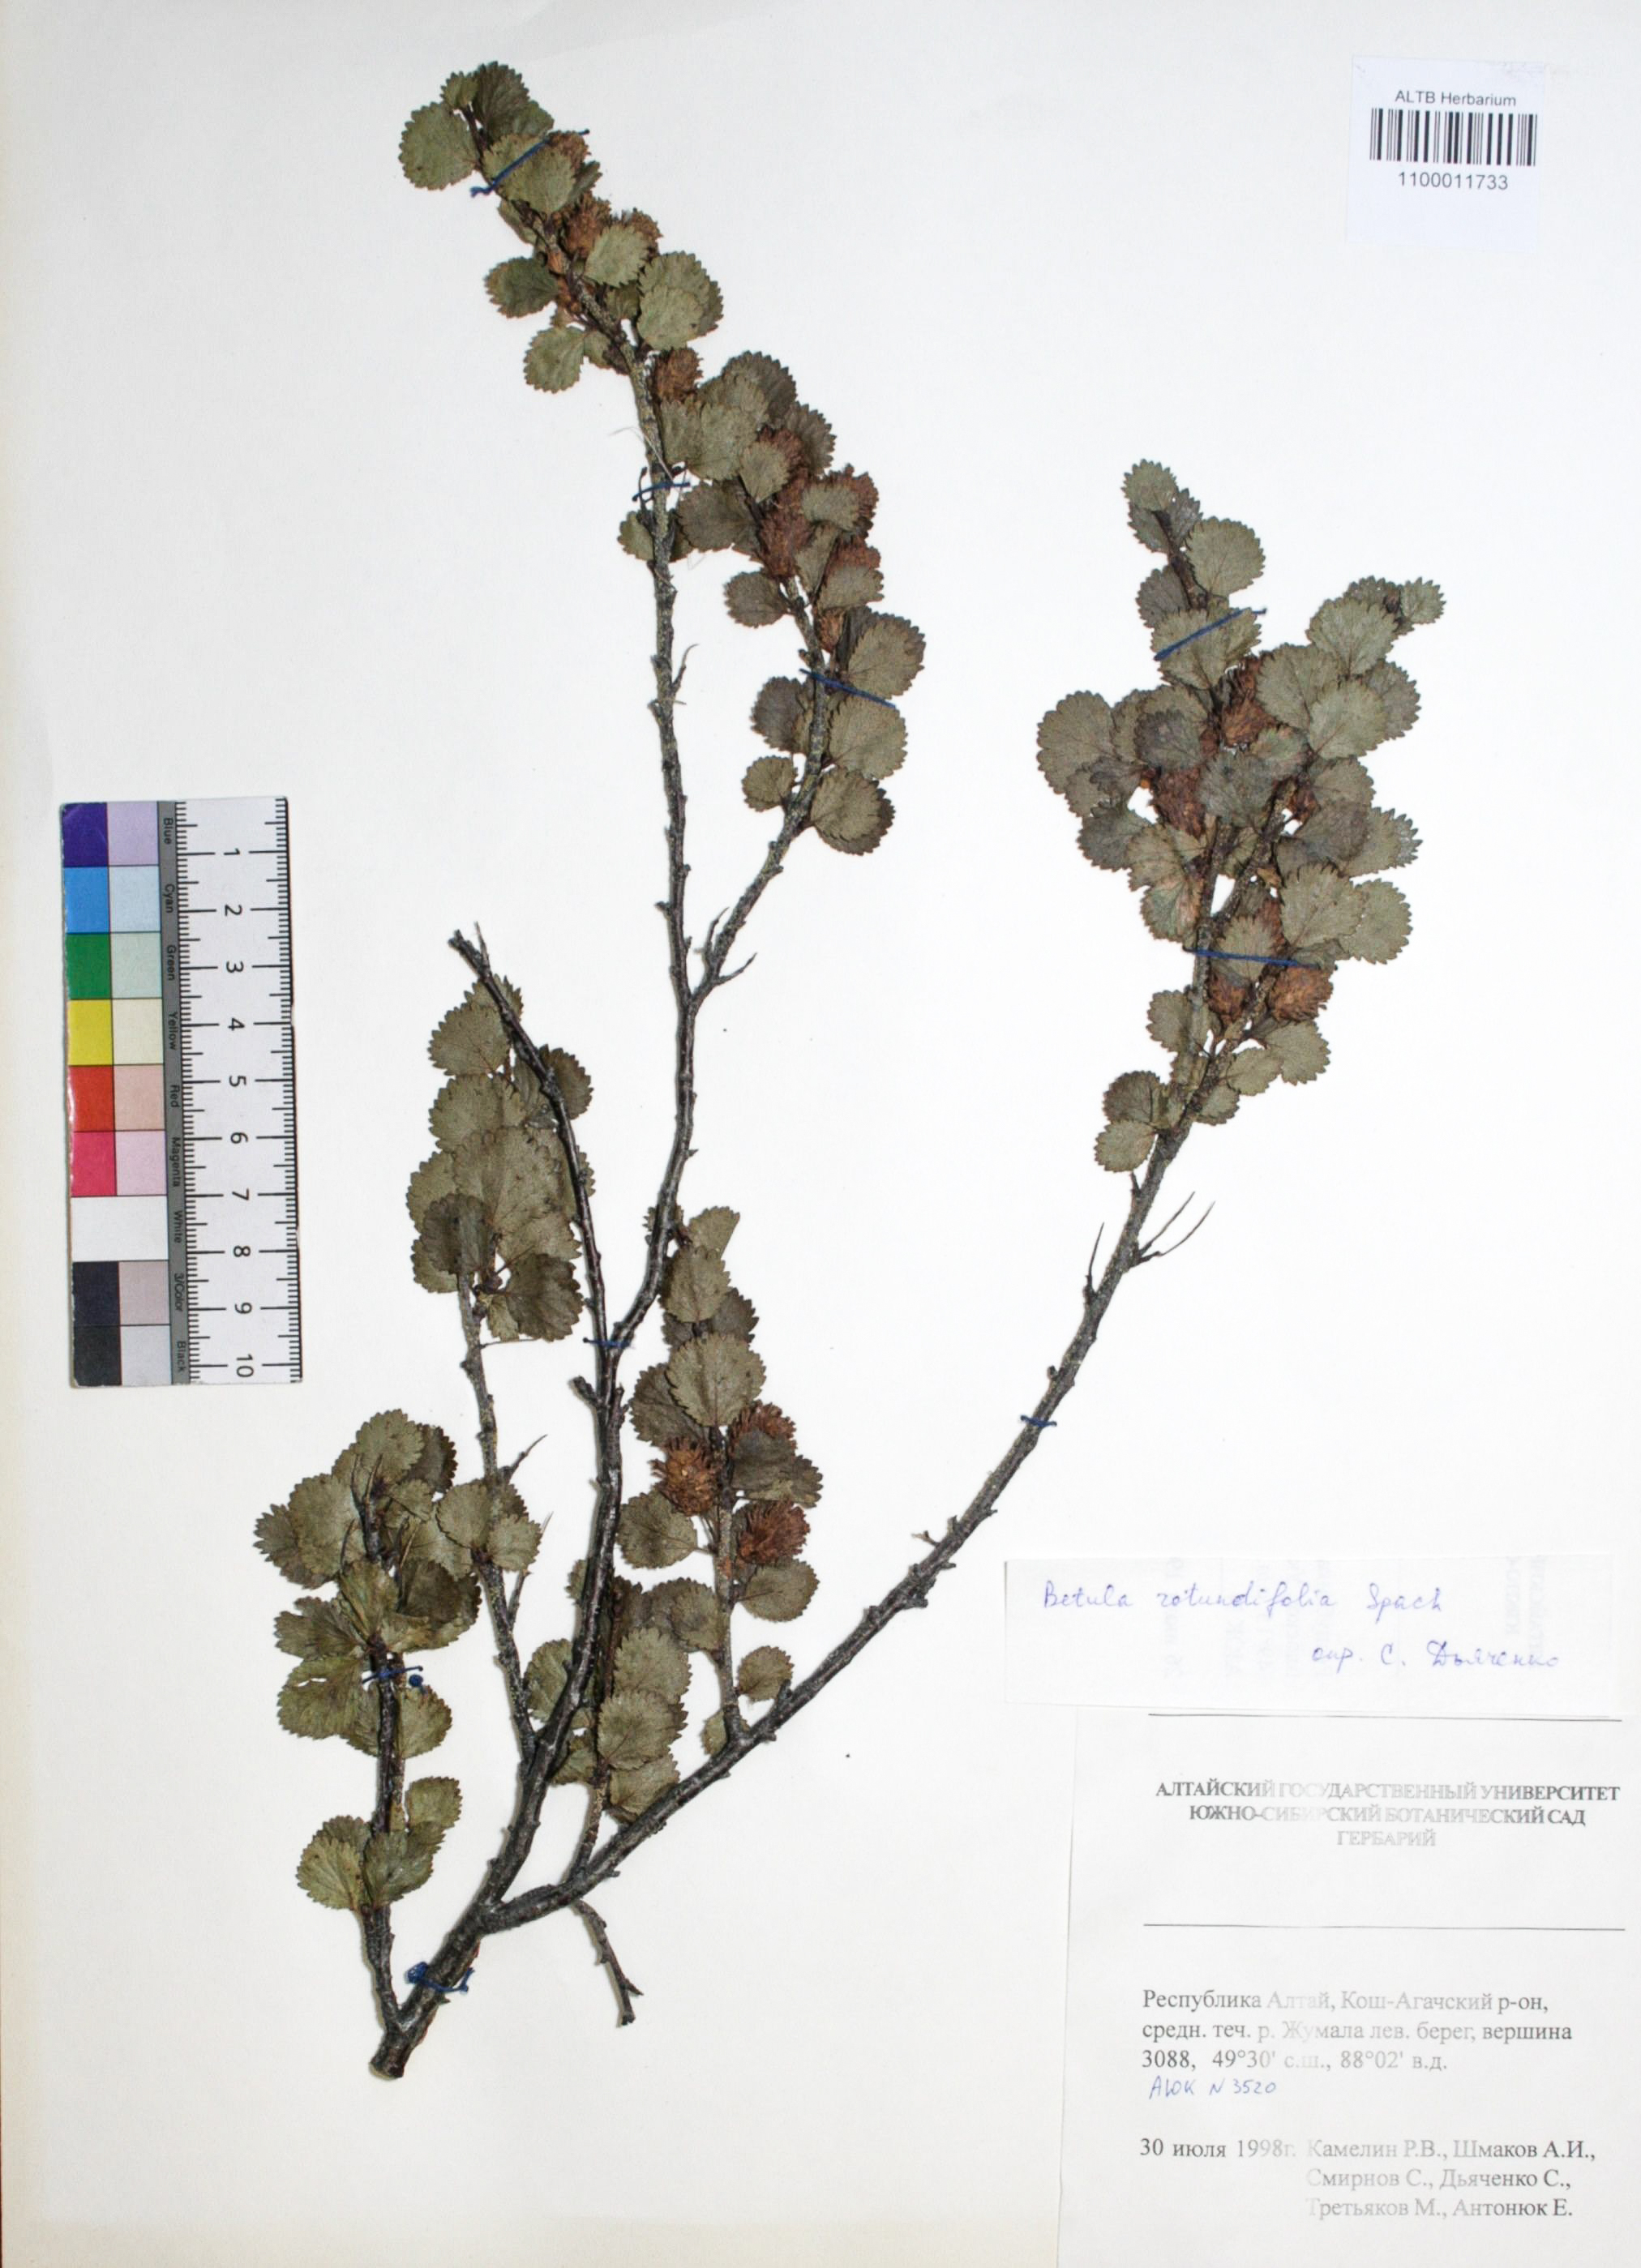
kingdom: Plantae
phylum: Tracheophyta
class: Magnoliopsida
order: Fagales
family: Betulaceae
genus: Betula
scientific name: Betula glandulosa
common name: Dwarf birch
